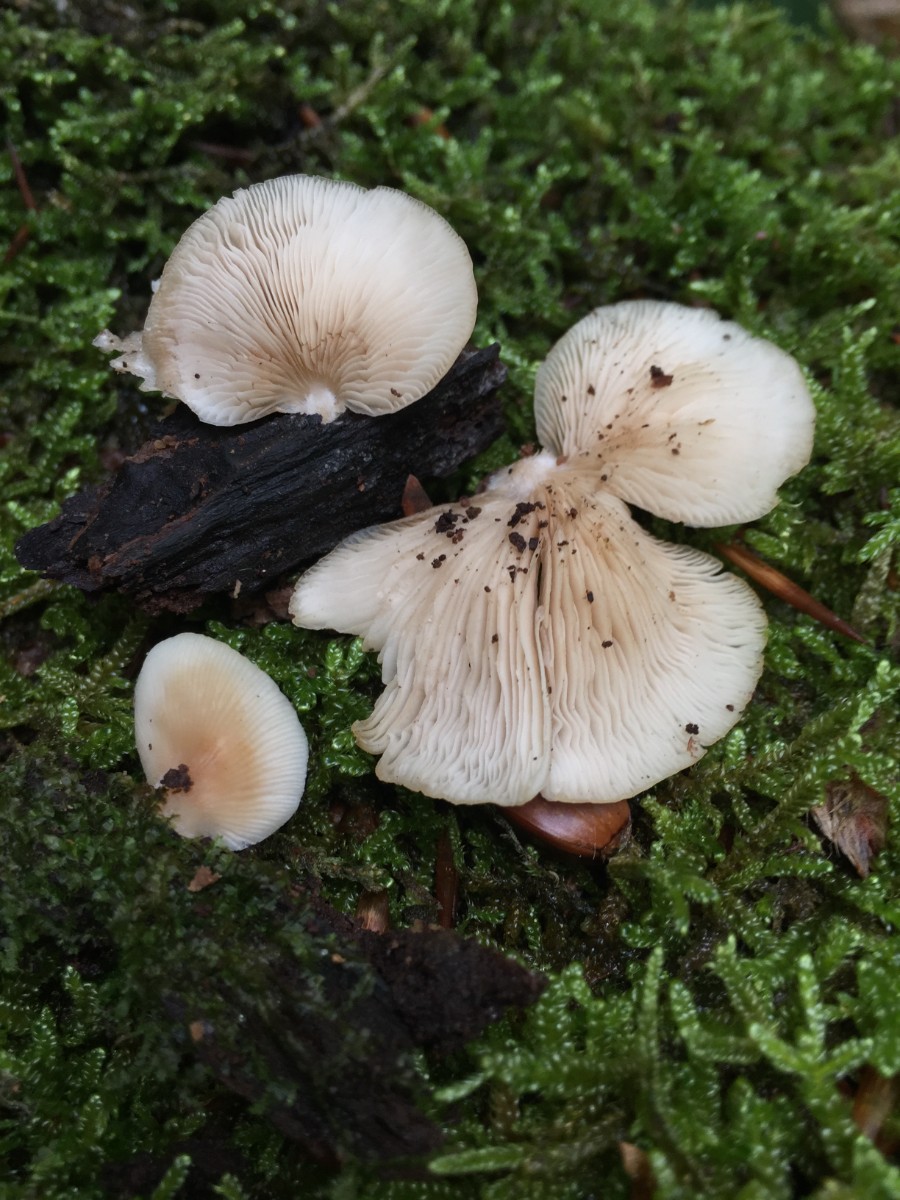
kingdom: Fungi
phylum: Basidiomycota
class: Agaricomycetes
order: Agaricales
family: Crepidotaceae
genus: Crepidotus
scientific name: Crepidotus applanatus
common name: tvefarvet muslingesvamp
